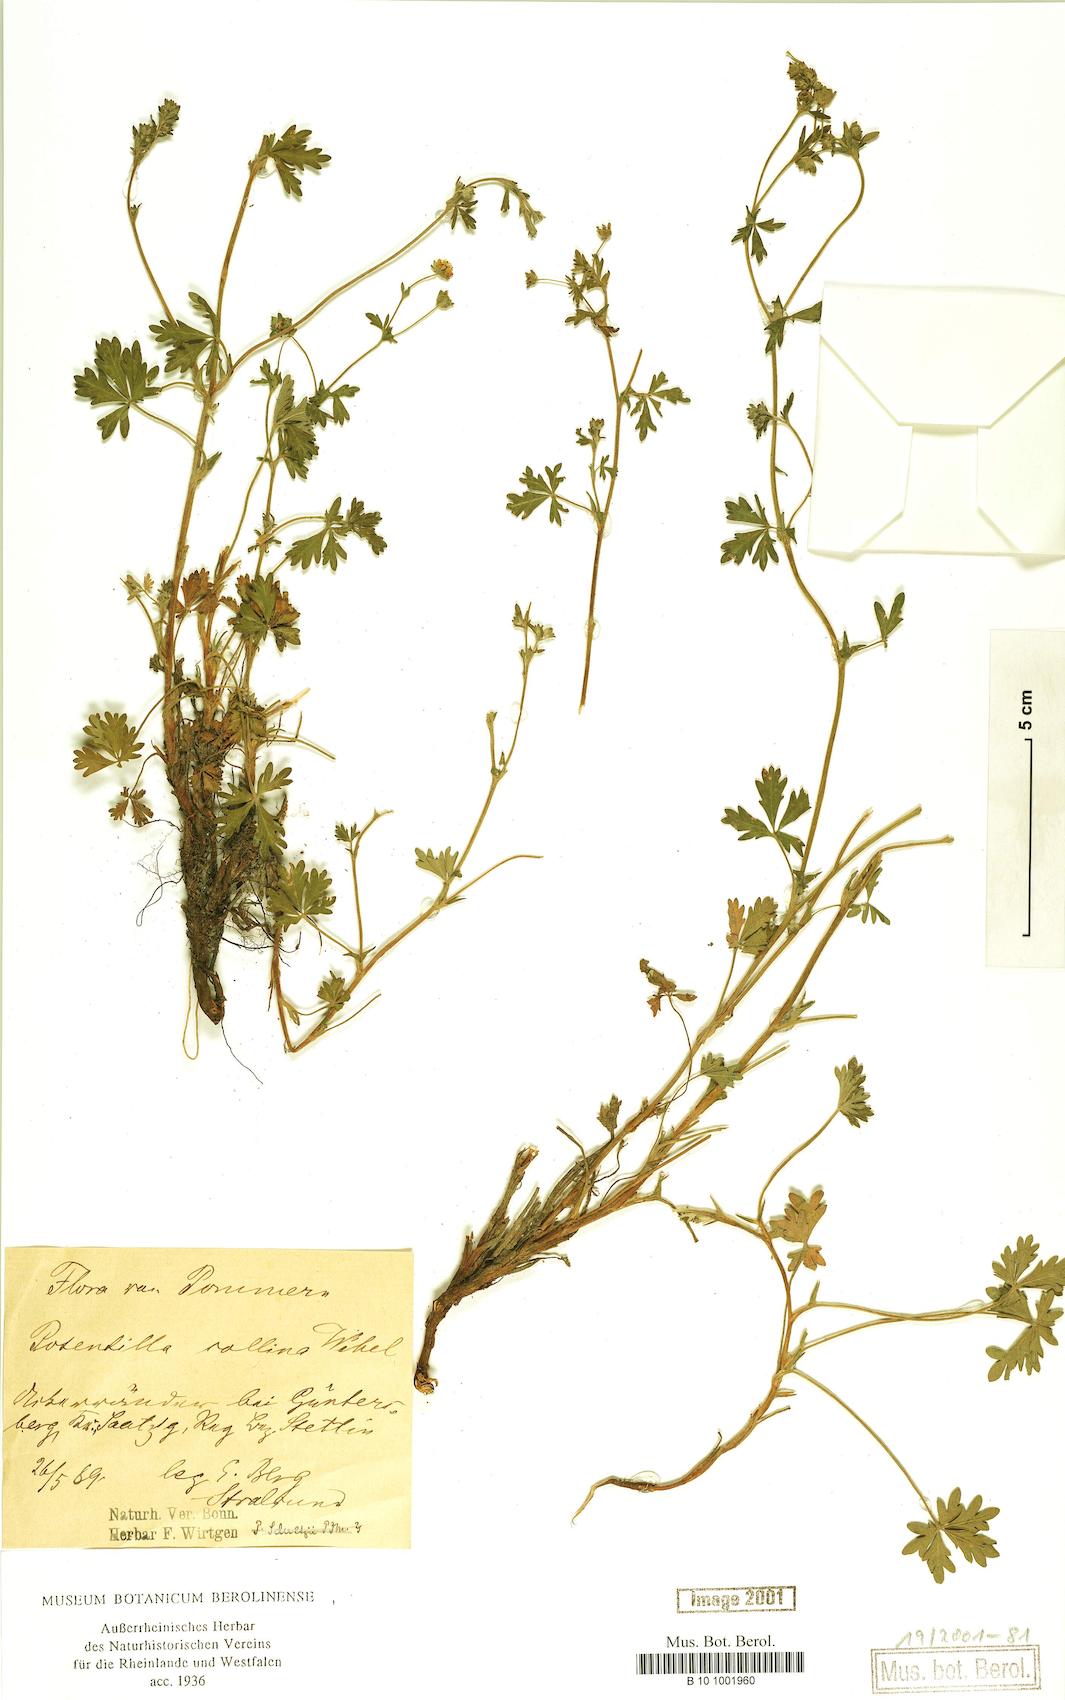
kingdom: Plantae
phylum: Tracheophyta
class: Magnoliopsida
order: Rosales
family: Rosaceae
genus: Potentilla
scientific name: Potentilla collina
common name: Palmleaf cinquefoil
